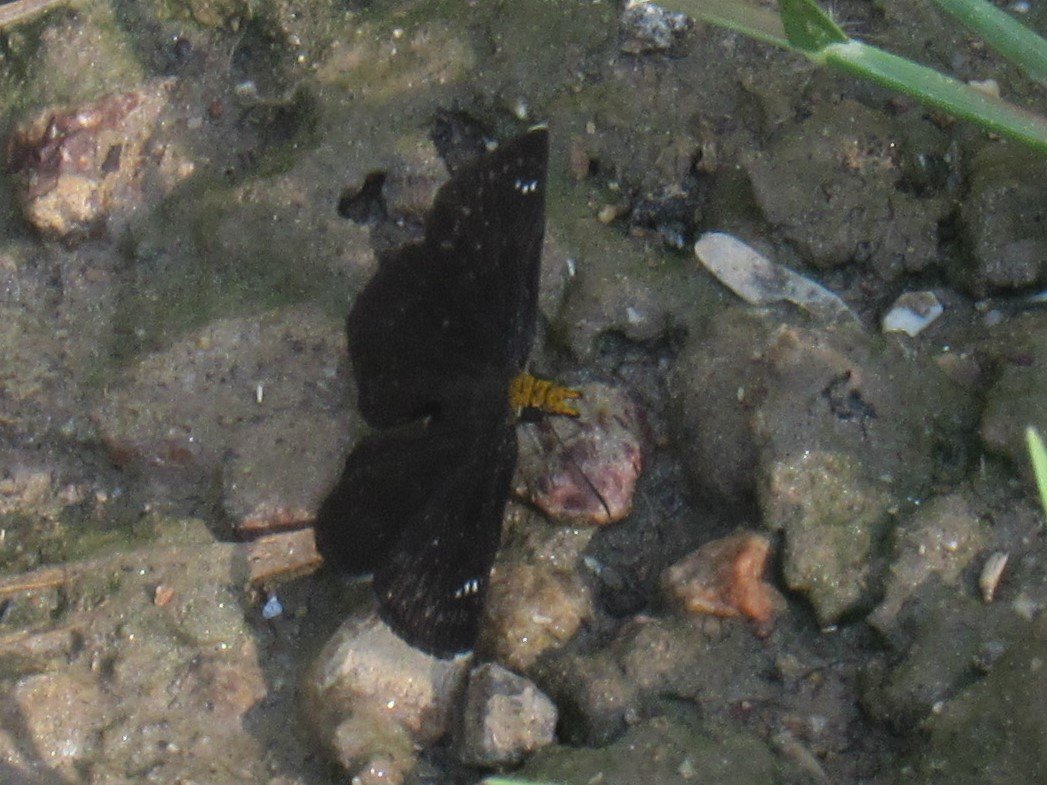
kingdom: Animalia
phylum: Arthropoda
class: Insecta
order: Lepidoptera
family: Hesperiidae
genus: Staphylus
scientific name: Staphylus ceos
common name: Golden-headed Scallopwing
